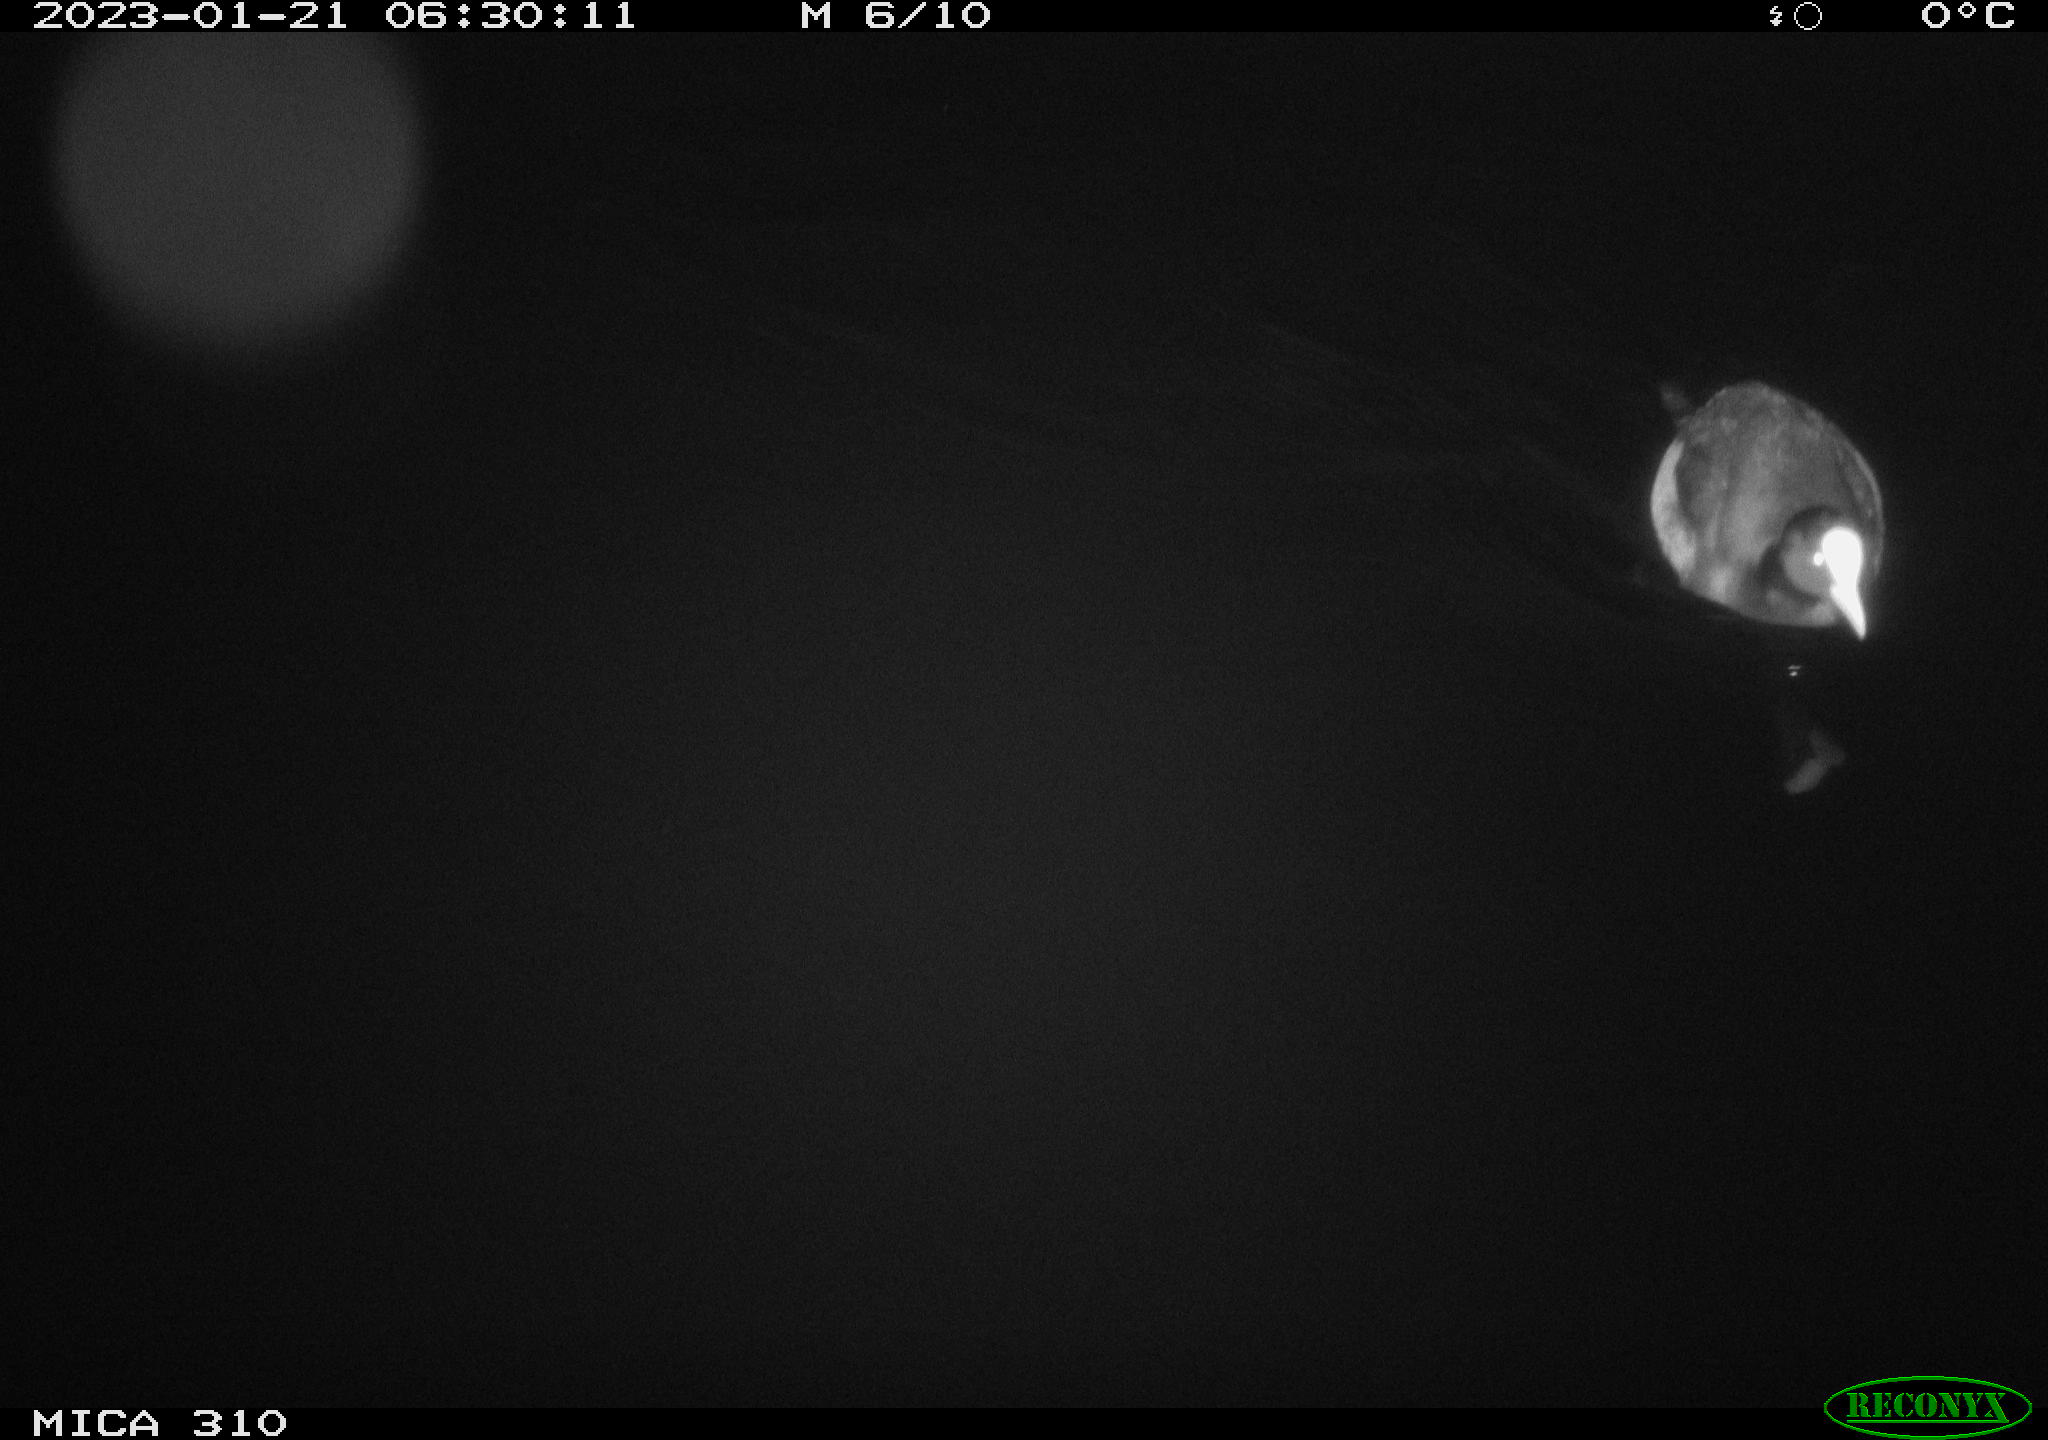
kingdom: Animalia
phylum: Chordata
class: Aves
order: Anseriformes
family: Anatidae
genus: Anas
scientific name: Anas
